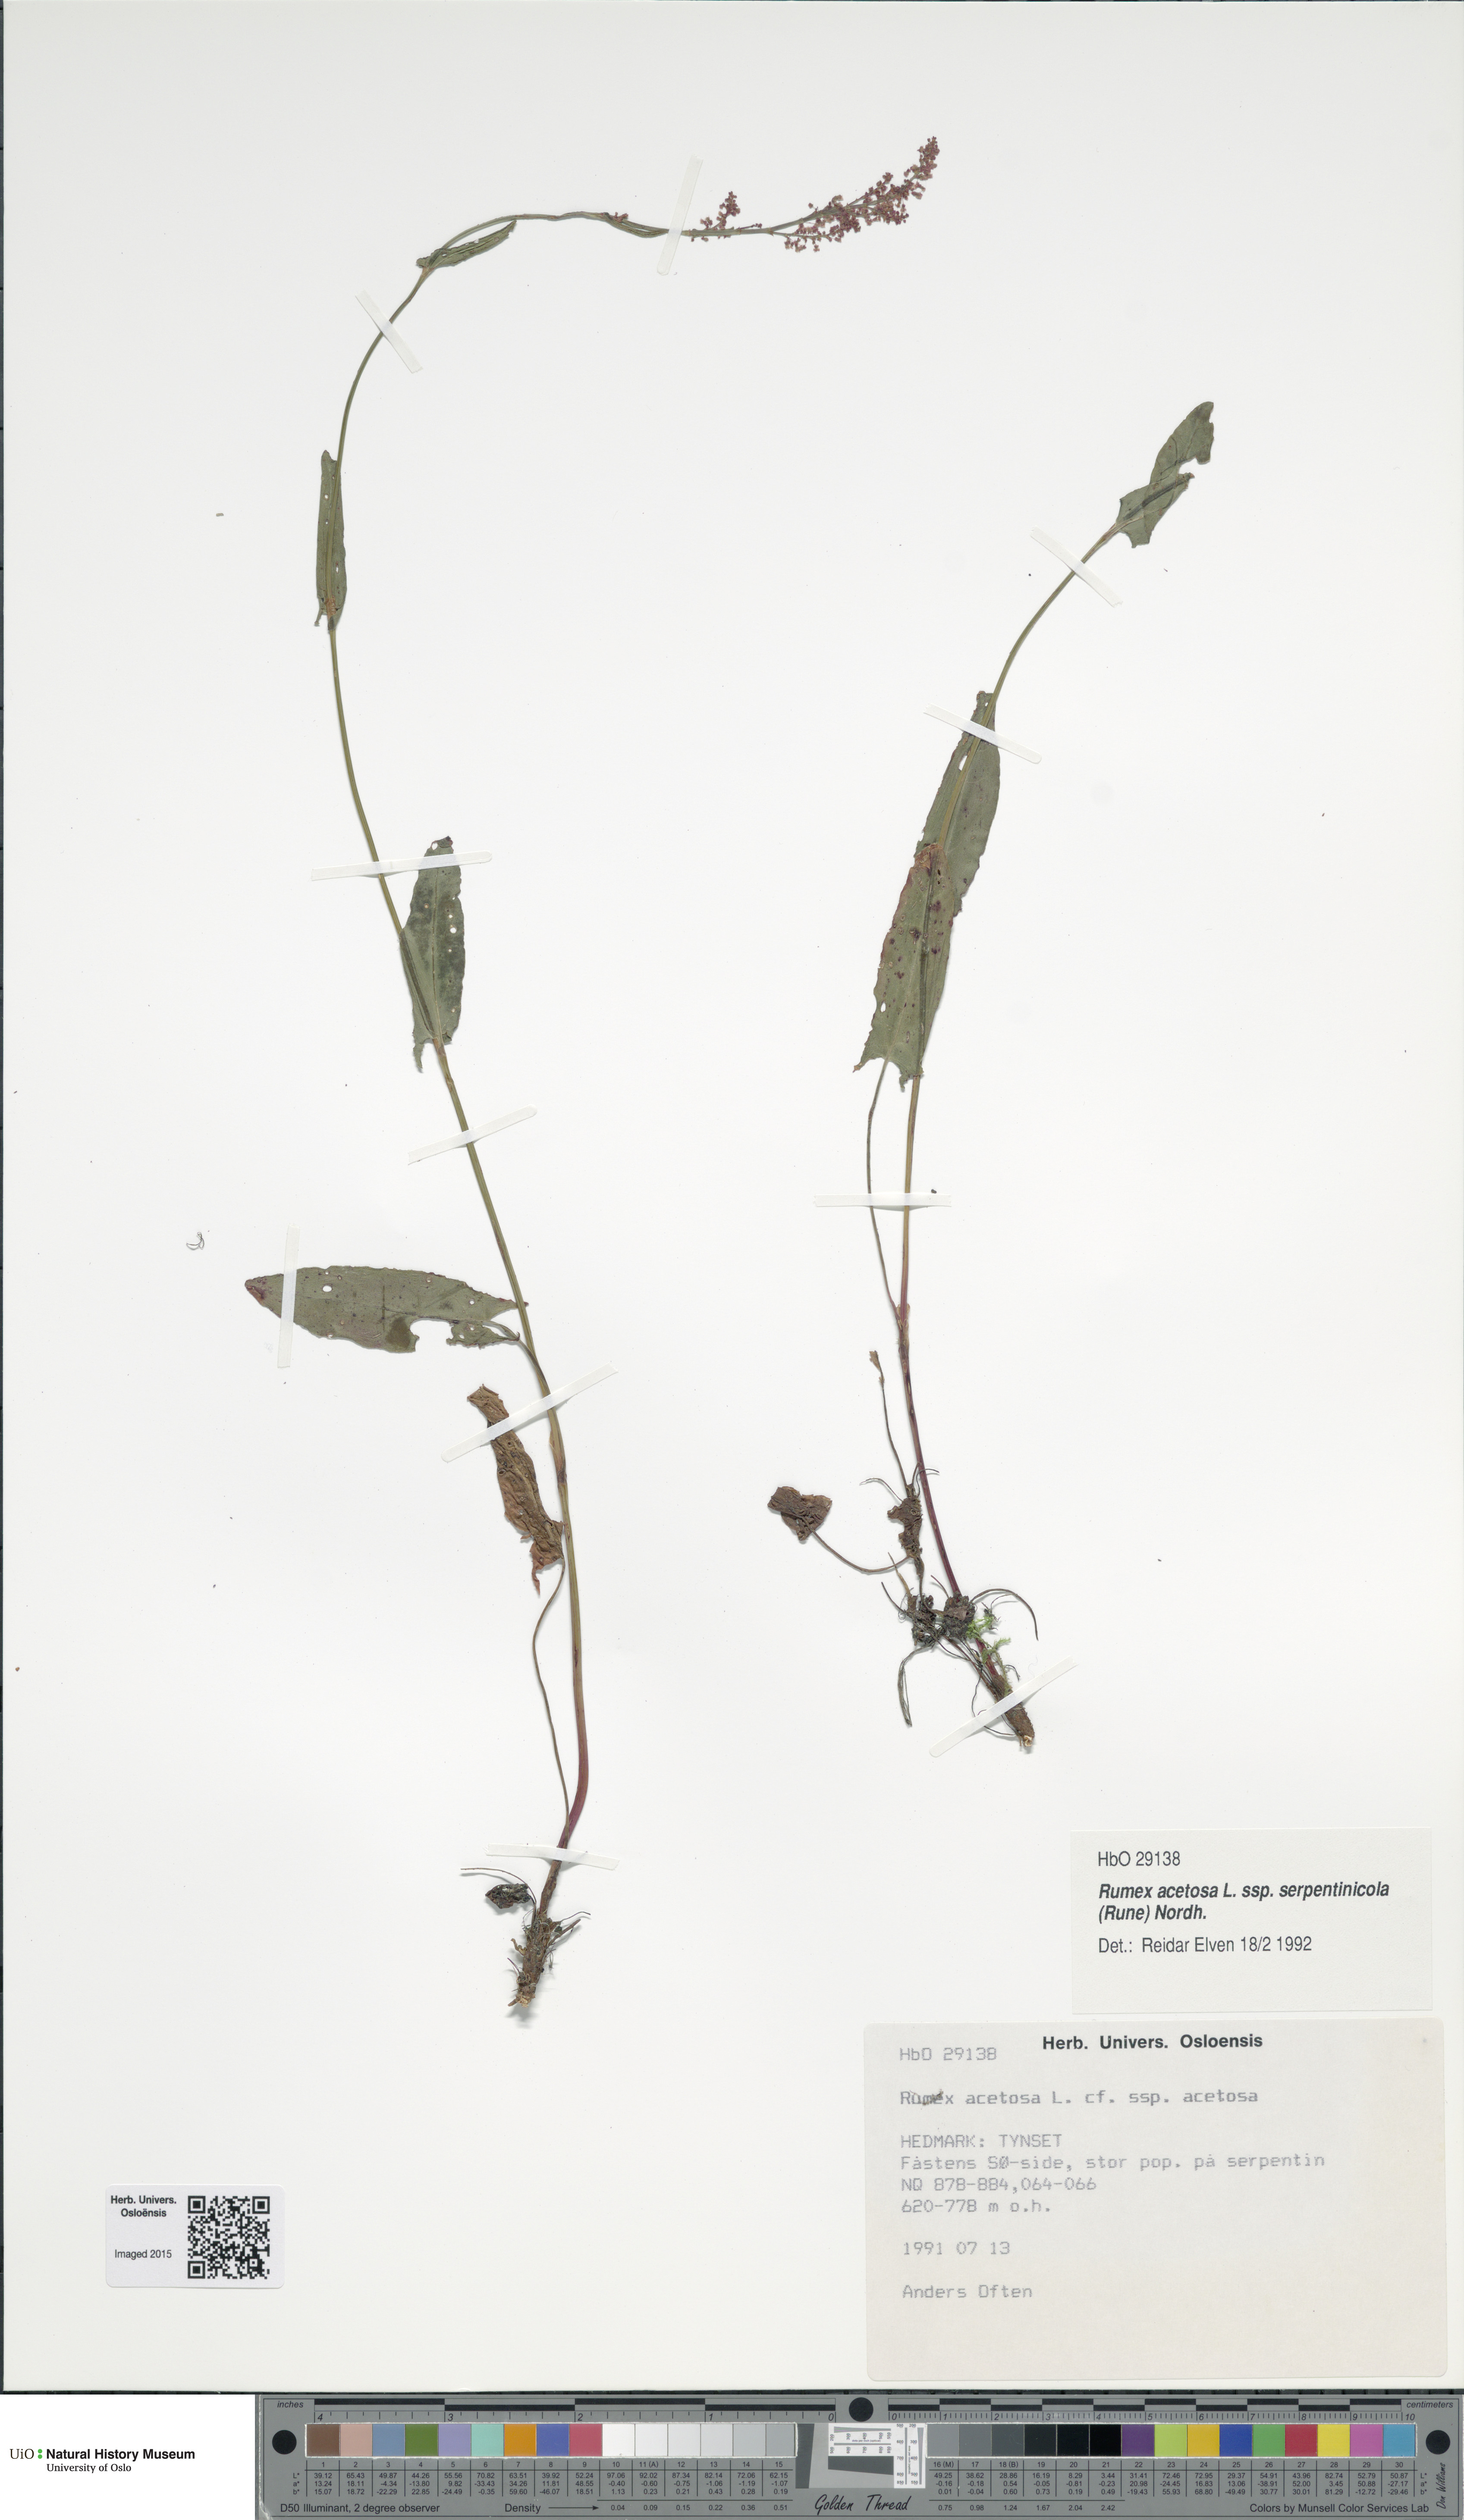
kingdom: Plantae
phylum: Tracheophyta
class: Magnoliopsida
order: Caryophyllales
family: Polygonaceae
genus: Rumex
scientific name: Rumex acetosa
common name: Garden sorrel
